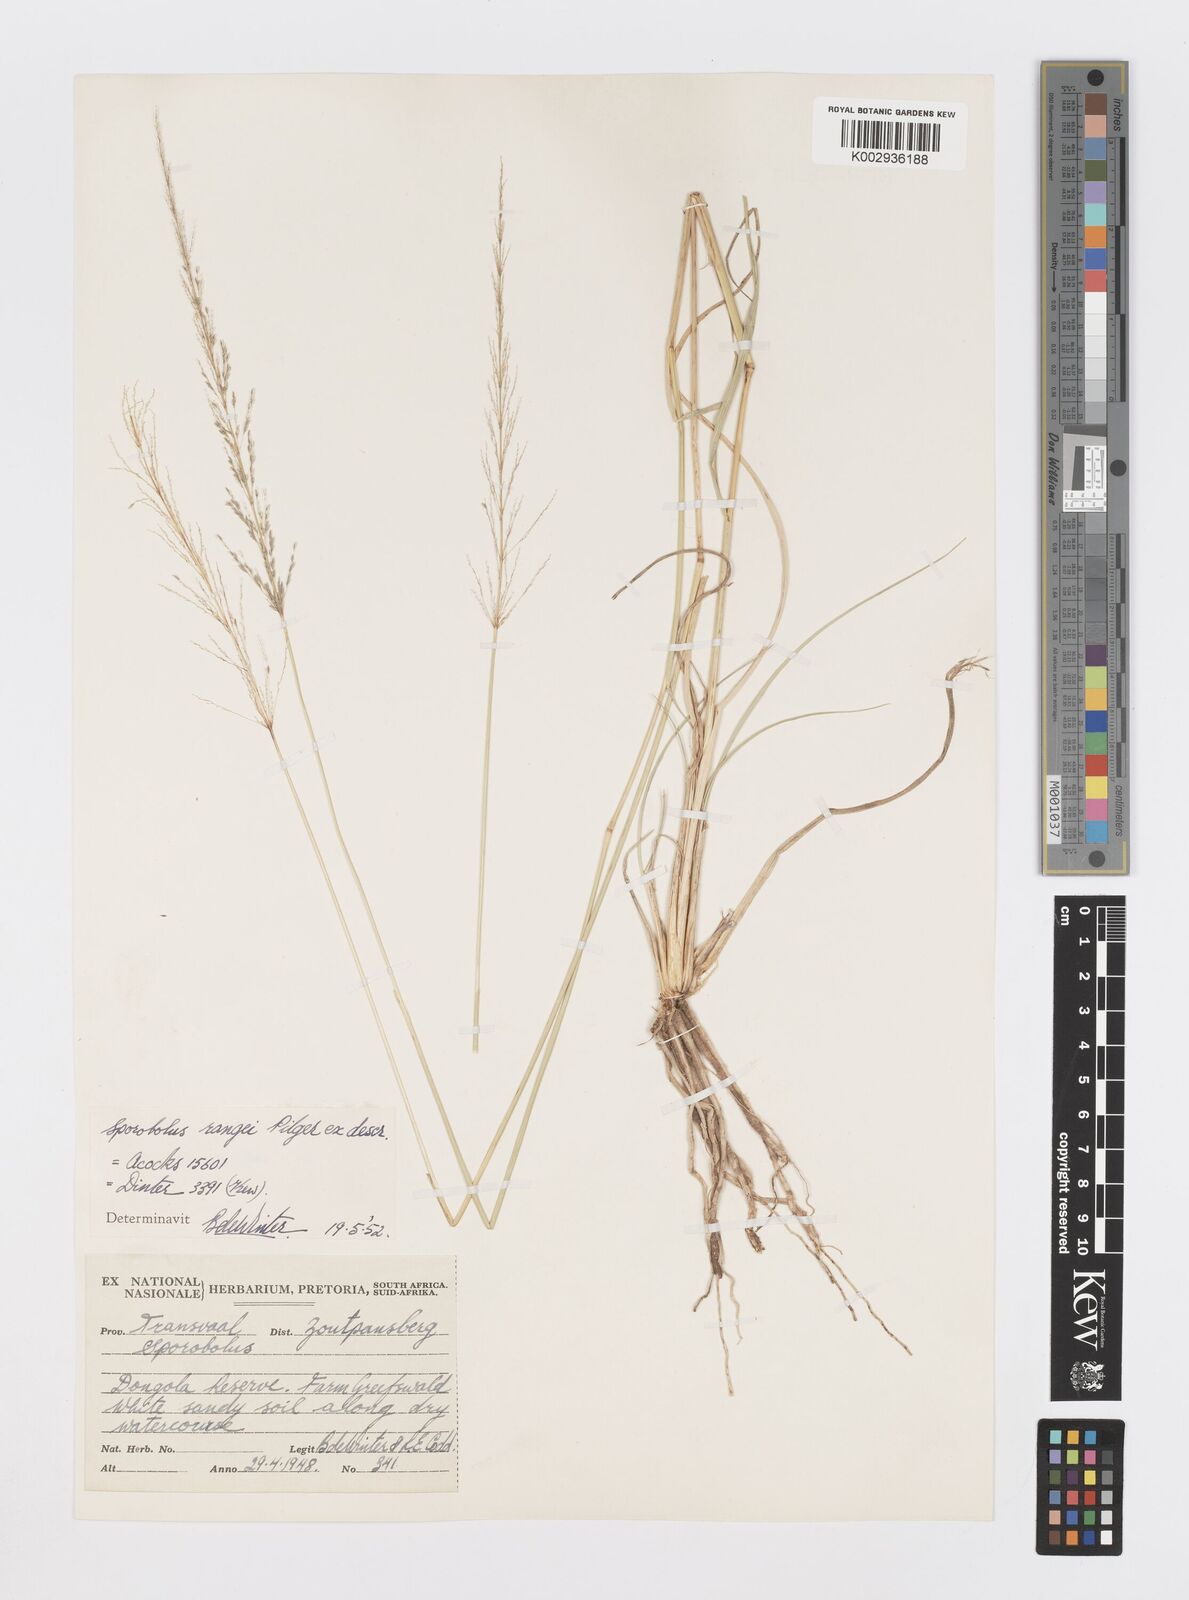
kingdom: Plantae
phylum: Tracheophyta
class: Liliopsida
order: Poales
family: Poaceae
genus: Sporobolus
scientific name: Sporobolus ioclados
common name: Pan dropseed
